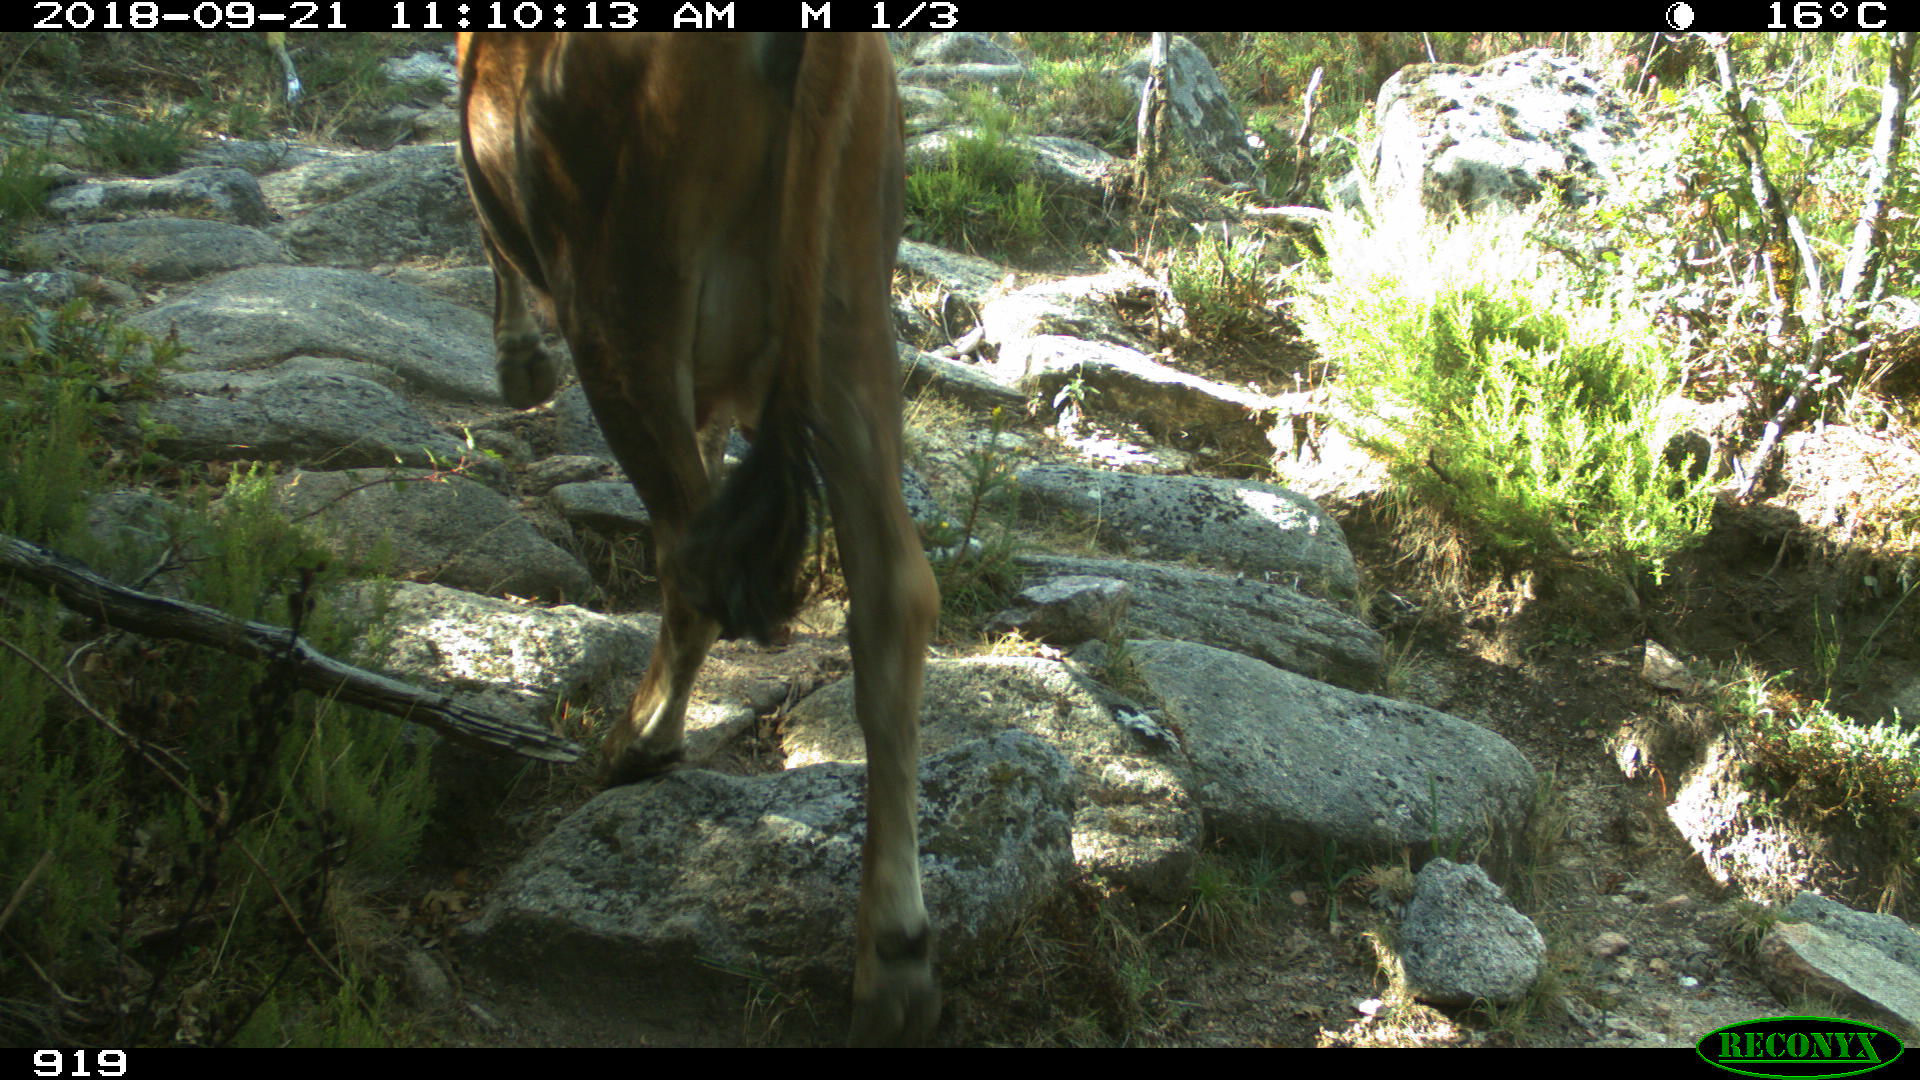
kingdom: Animalia
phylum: Chordata
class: Mammalia
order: Artiodactyla
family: Bovidae
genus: Bos
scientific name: Bos taurus
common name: Domesticated cattle
